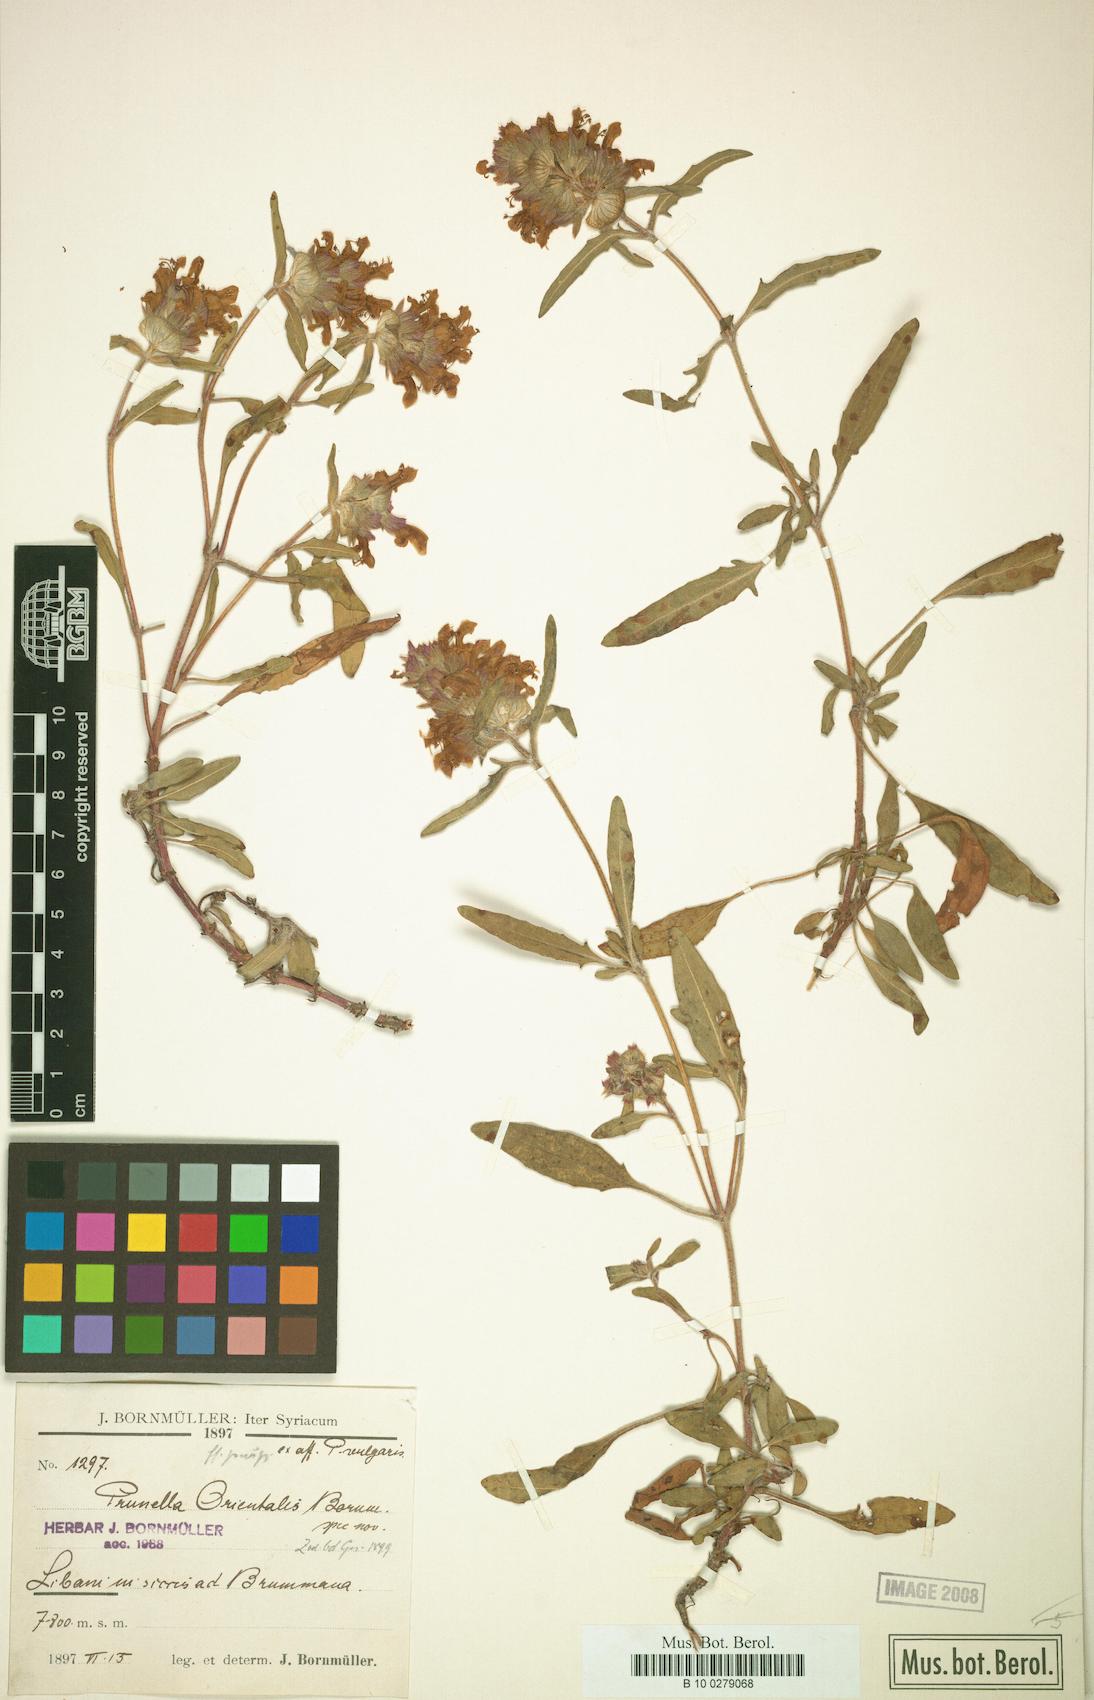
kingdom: Plantae
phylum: Tracheophyta
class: Magnoliopsida
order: Lamiales
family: Lamiaceae
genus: Prunella
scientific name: Prunella orientalis
